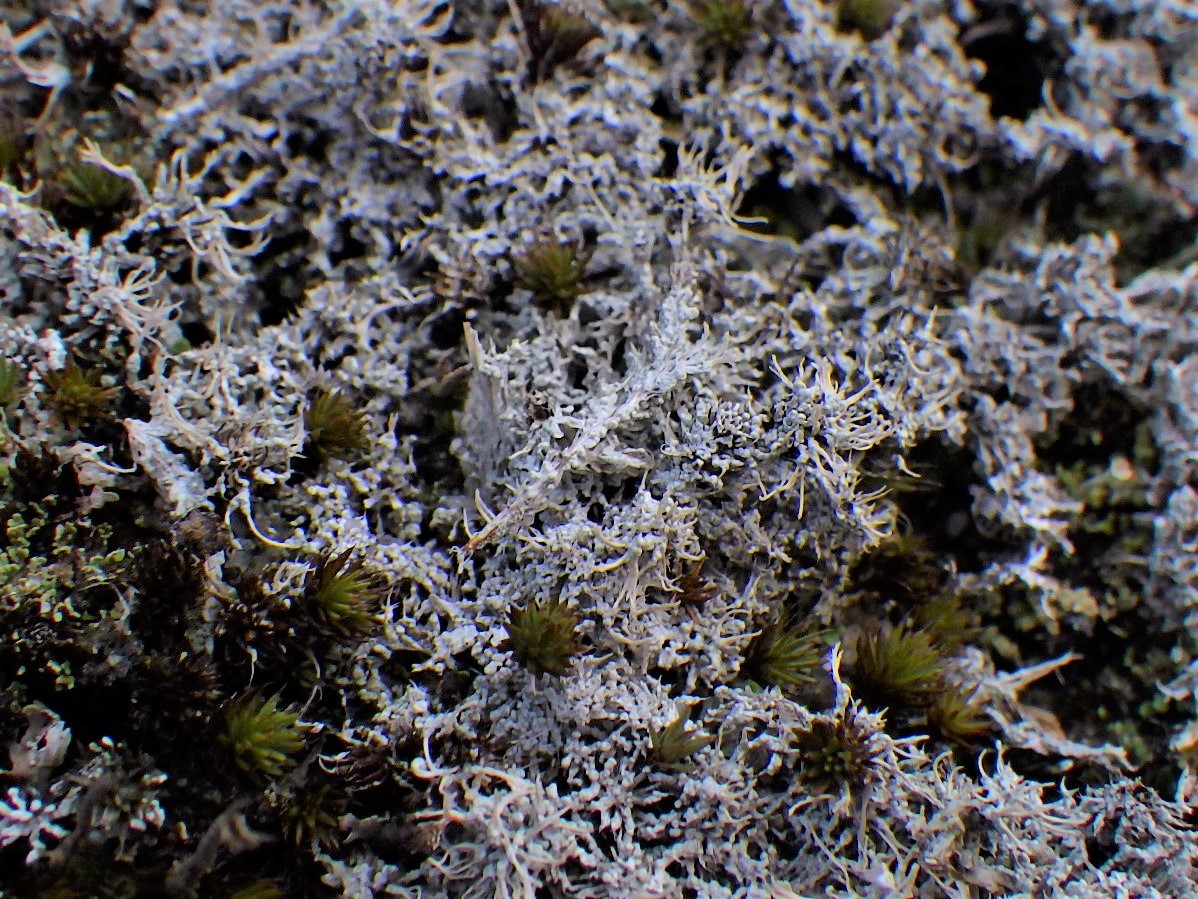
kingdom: Fungi
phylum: Ascomycota
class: Lecanoromycetes
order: Pertusariales
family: Ochrolechiaceae
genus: Ochrolechia
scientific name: Ochrolechia frigida
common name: fjeld-blegskivelav
